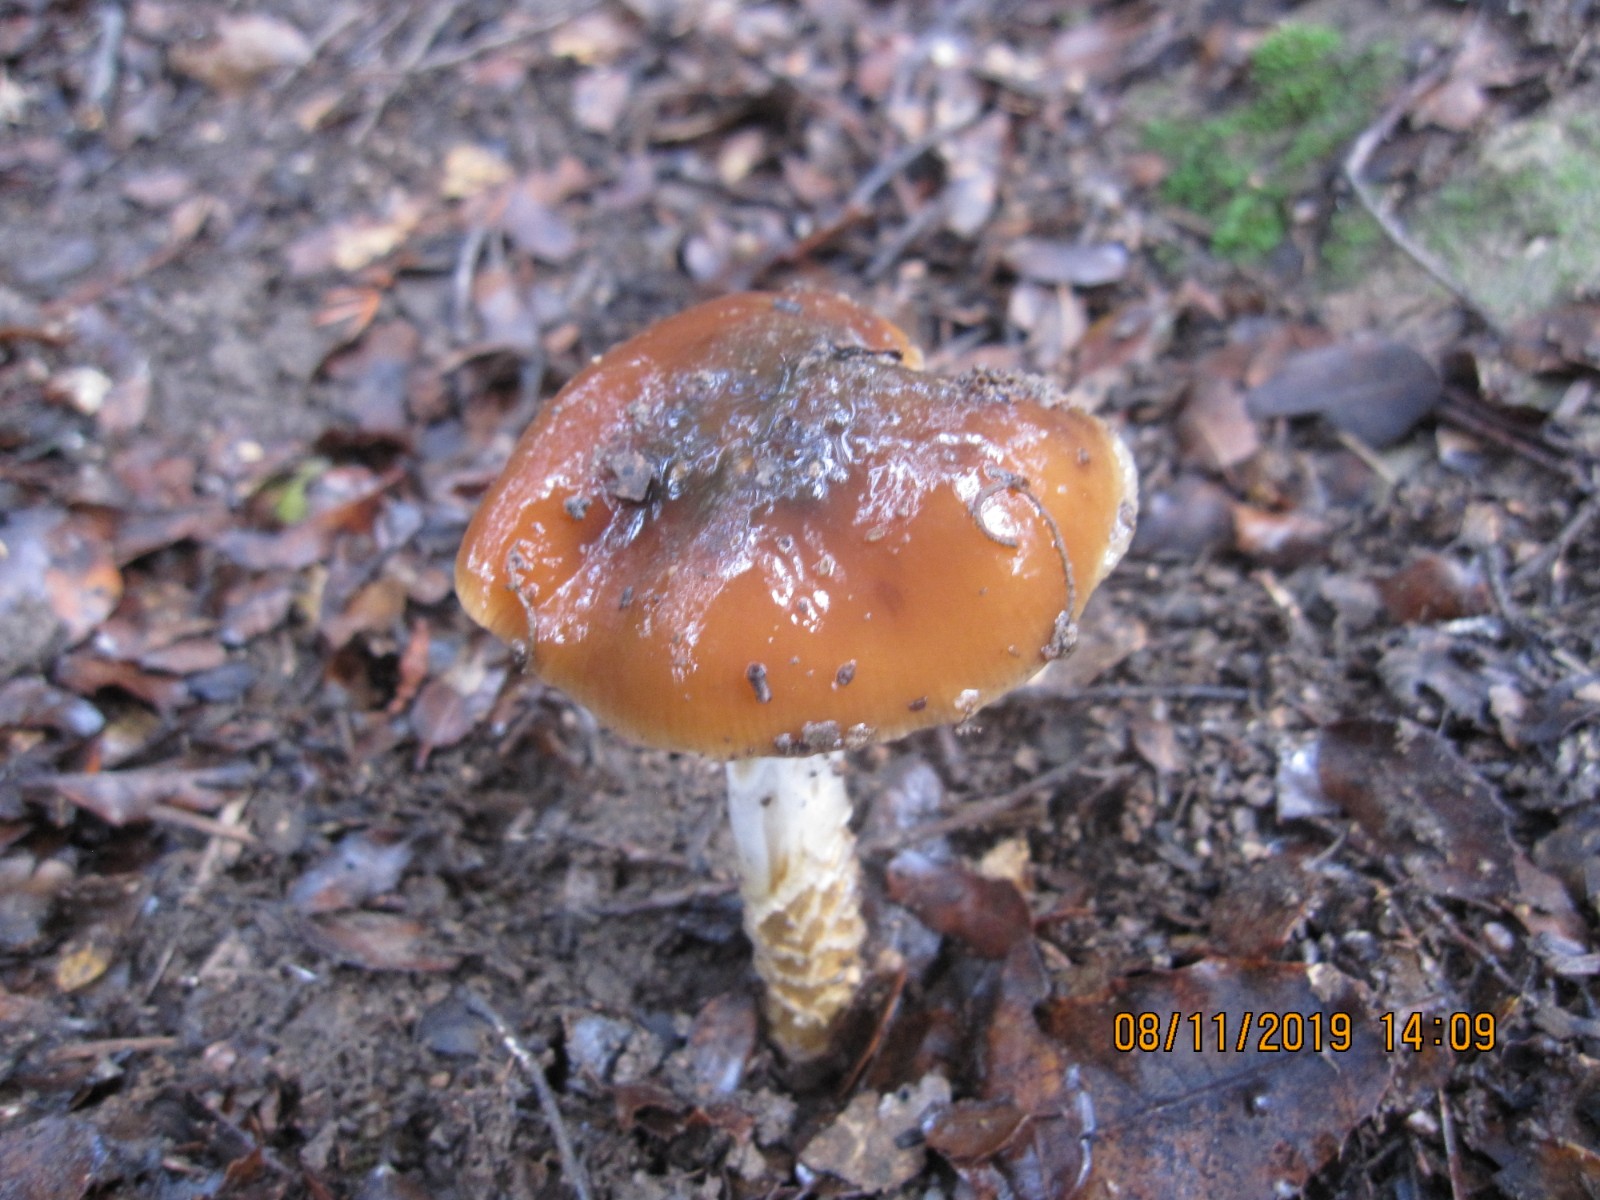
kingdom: Fungi
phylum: Basidiomycota
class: Agaricomycetes
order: Agaricales
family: Cortinariaceae
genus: Cortinarius
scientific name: Cortinarius trivialis
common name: brunslimet slørhat
